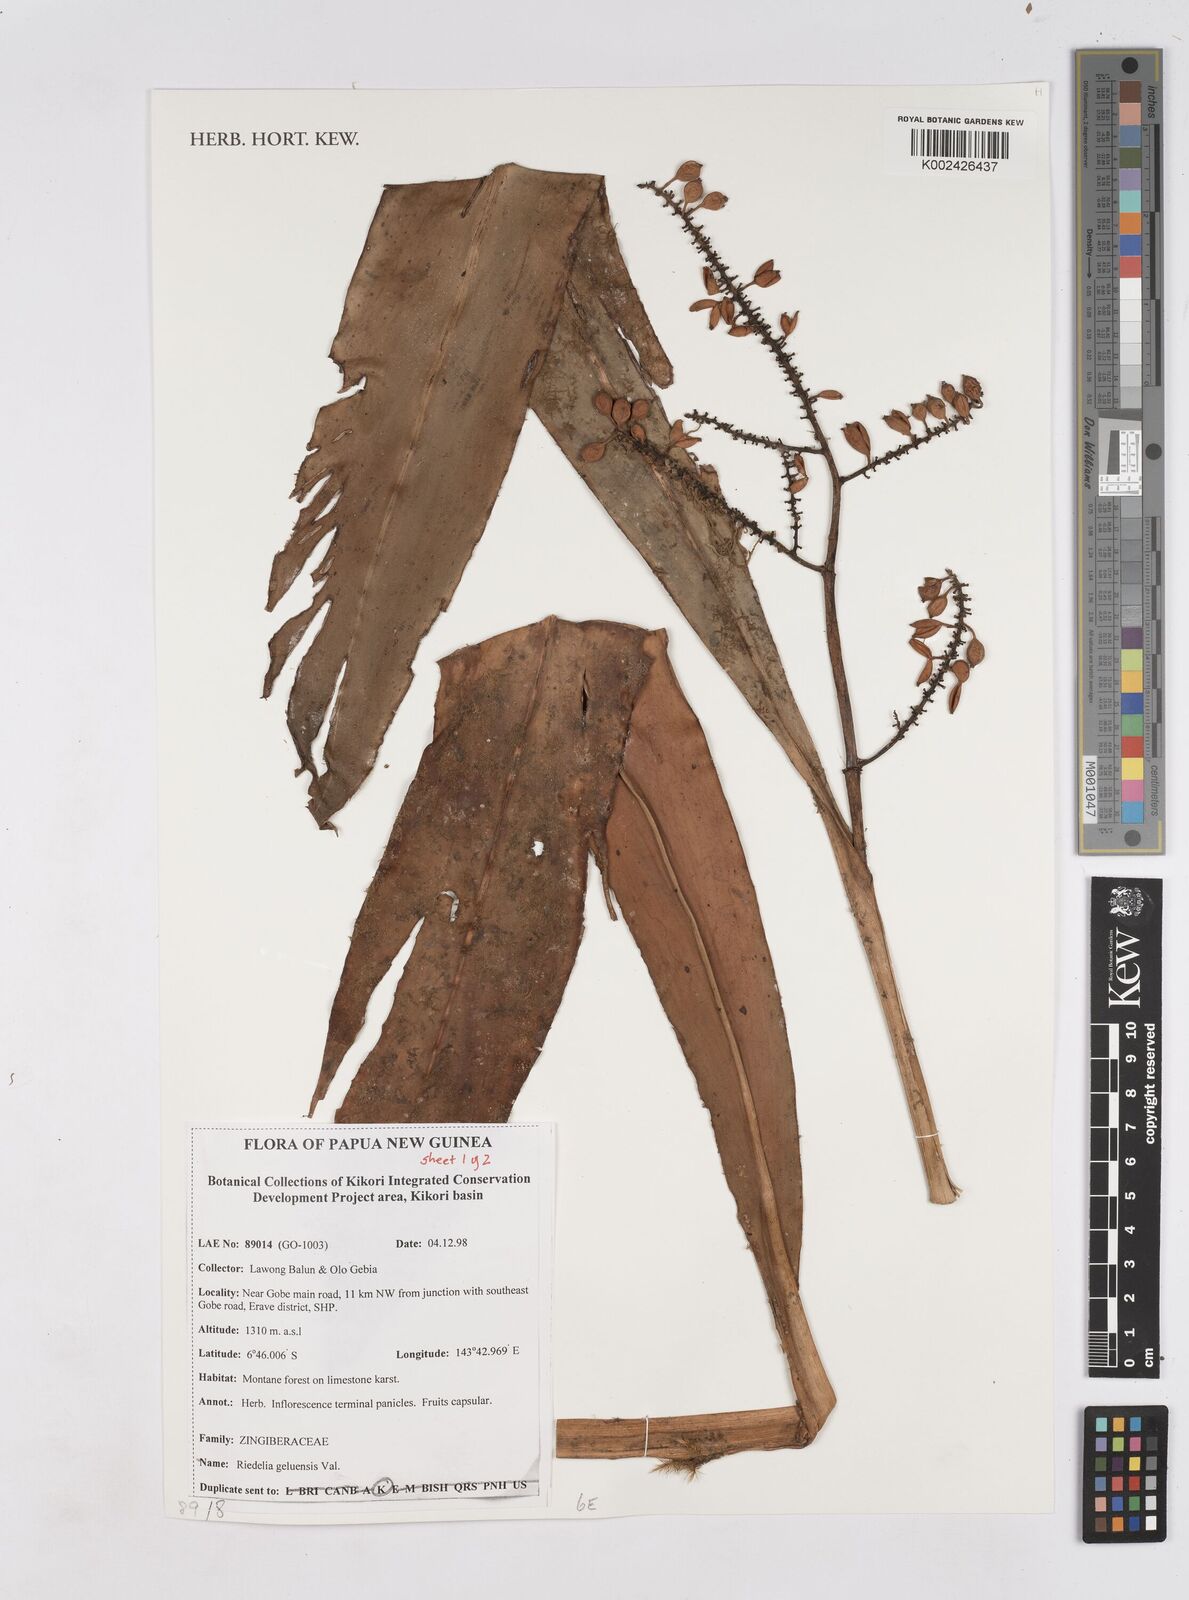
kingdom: Plantae
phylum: Tracheophyta
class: Liliopsida
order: Zingiberales
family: Zingiberaceae
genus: Riedelia
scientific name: Riedelia geluensis
